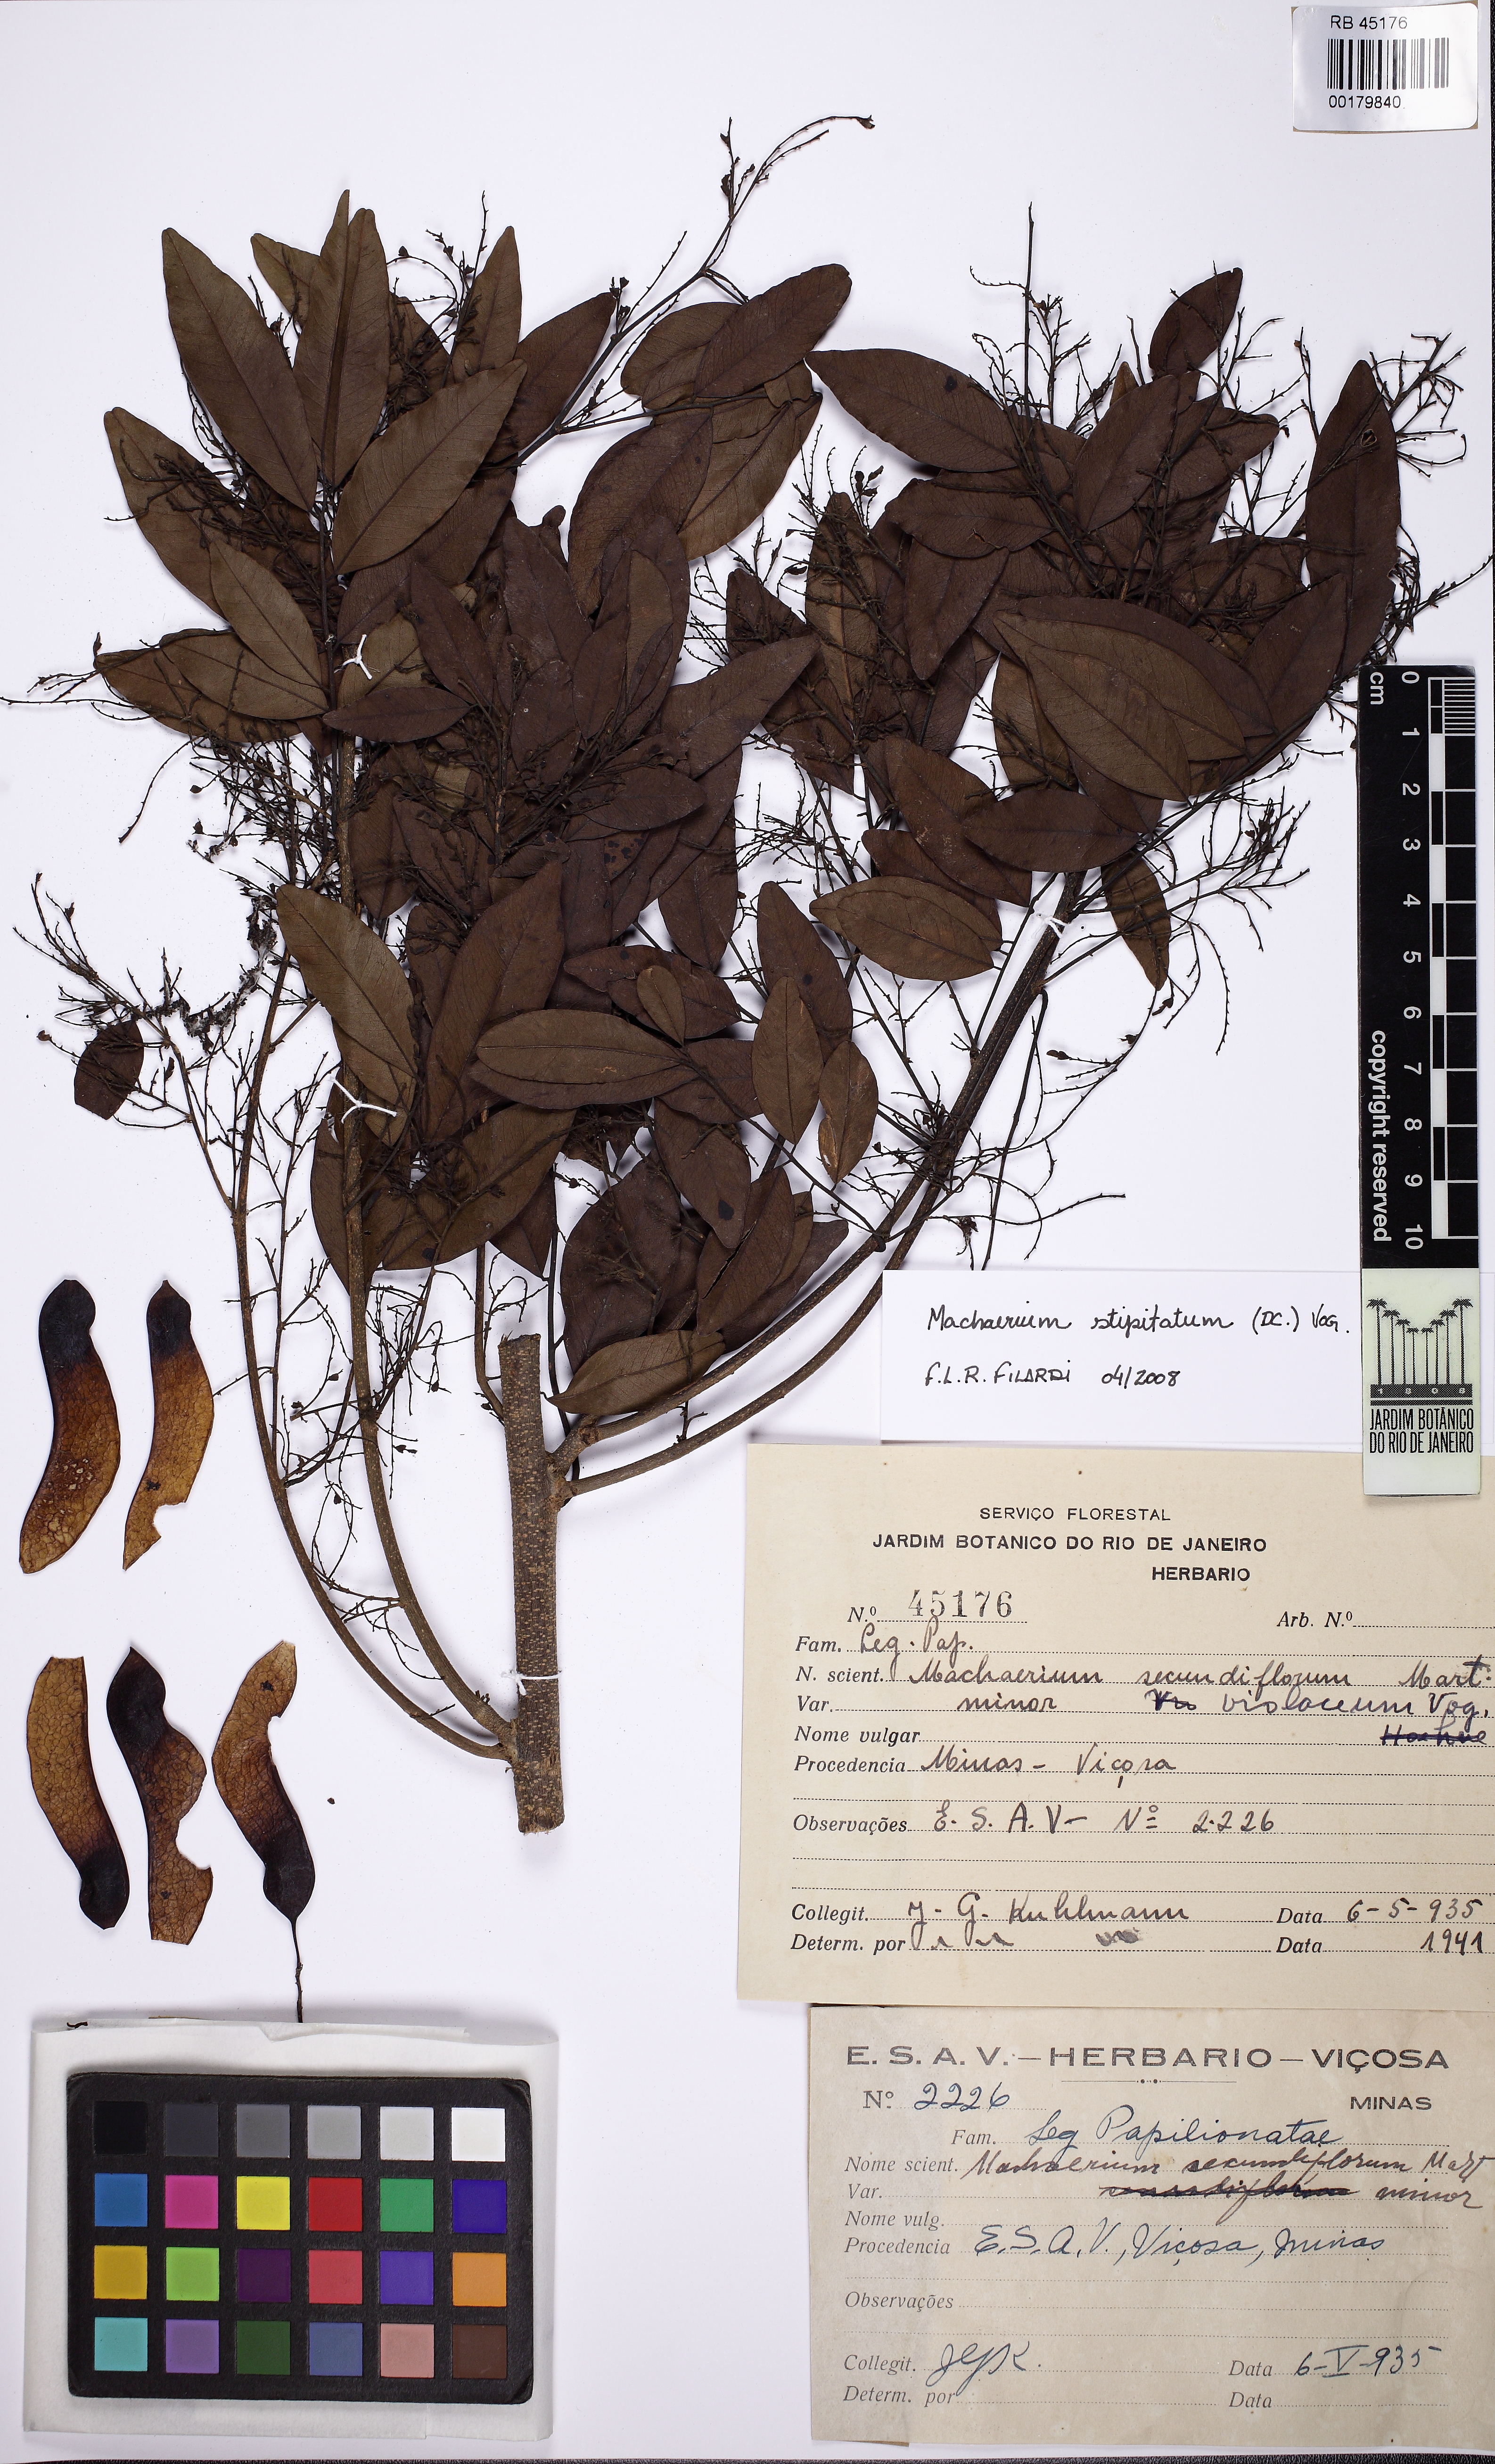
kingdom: Plantae
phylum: Tracheophyta
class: Magnoliopsida
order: Fabales
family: Fabaceae
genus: Machaerium
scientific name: Machaerium stipitatum
